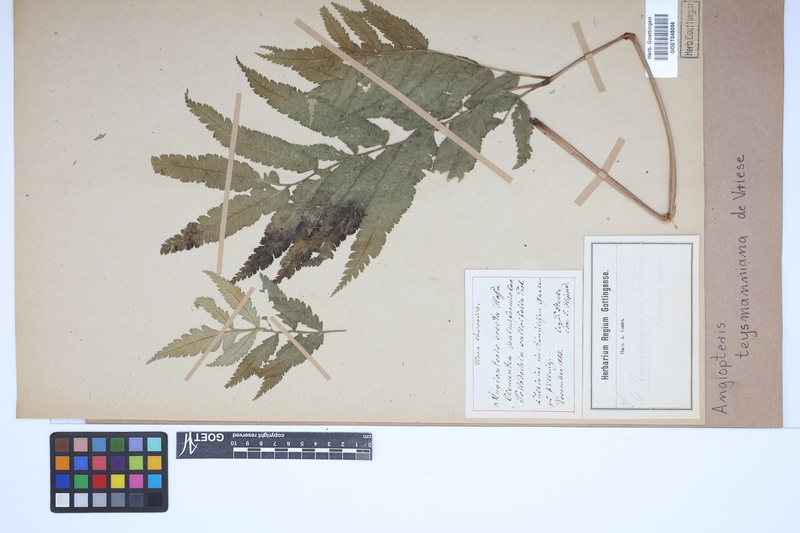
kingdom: Plantae
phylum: Tracheophyta
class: Polypodiopsida
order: Marattiales
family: Marattiaceae
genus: Angiopteris
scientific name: Angiopteris javanica
